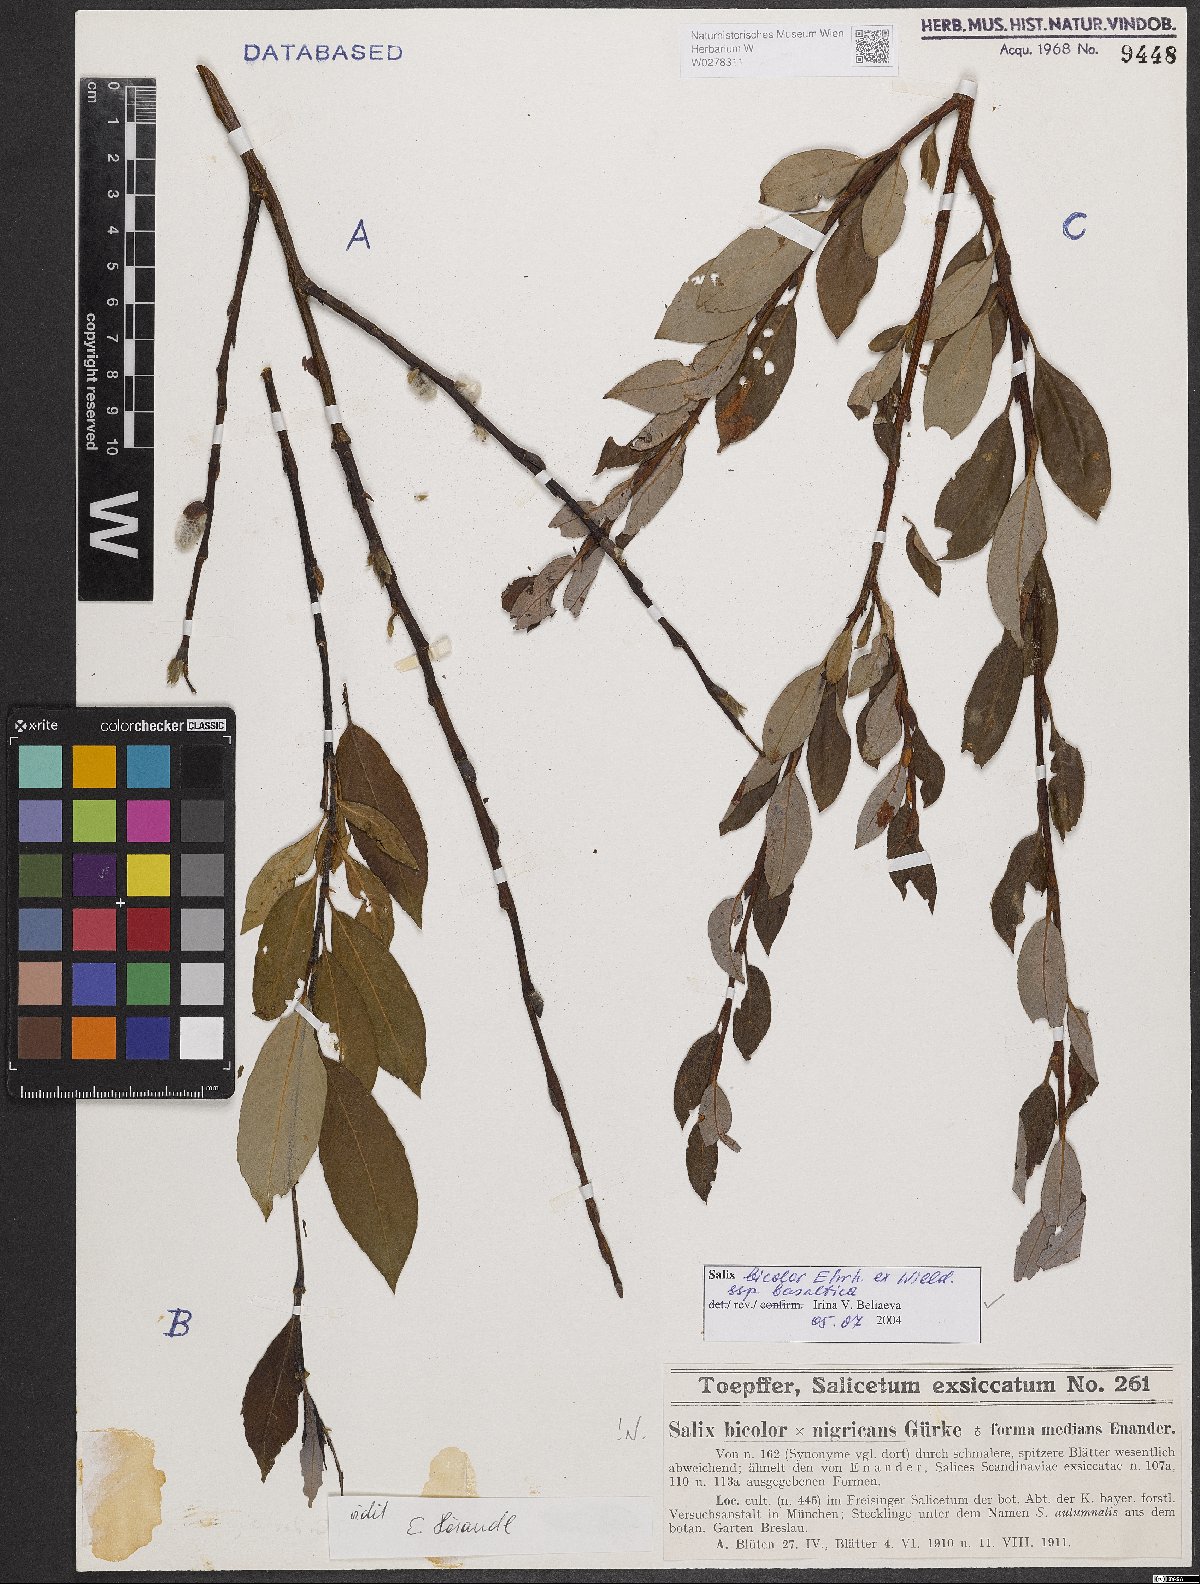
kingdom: Plantae
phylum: Tracheophyta
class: Magnoliopsida
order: Malpighiales
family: Salicaceae
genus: Salix
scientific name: Salix basaltica
